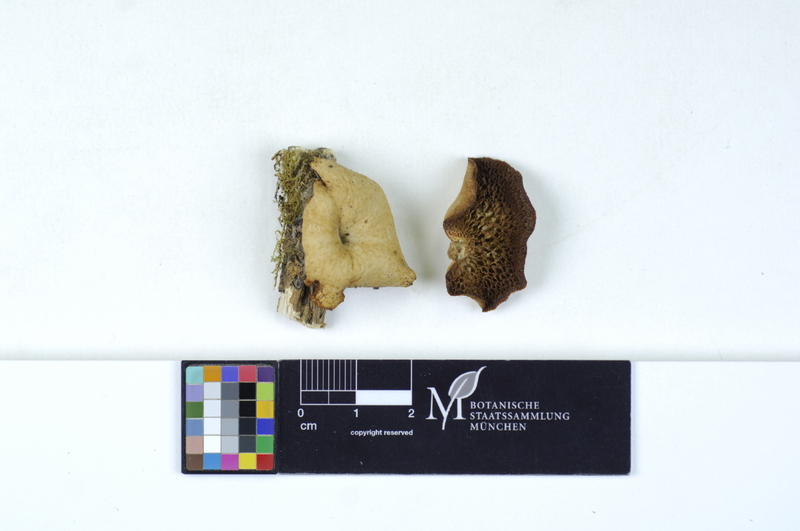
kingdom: Plantae
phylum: Tracheophyta
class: Magnoliopsida
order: Lamiales
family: Oleaceae
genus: Fraxinus
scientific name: Fraxinus
